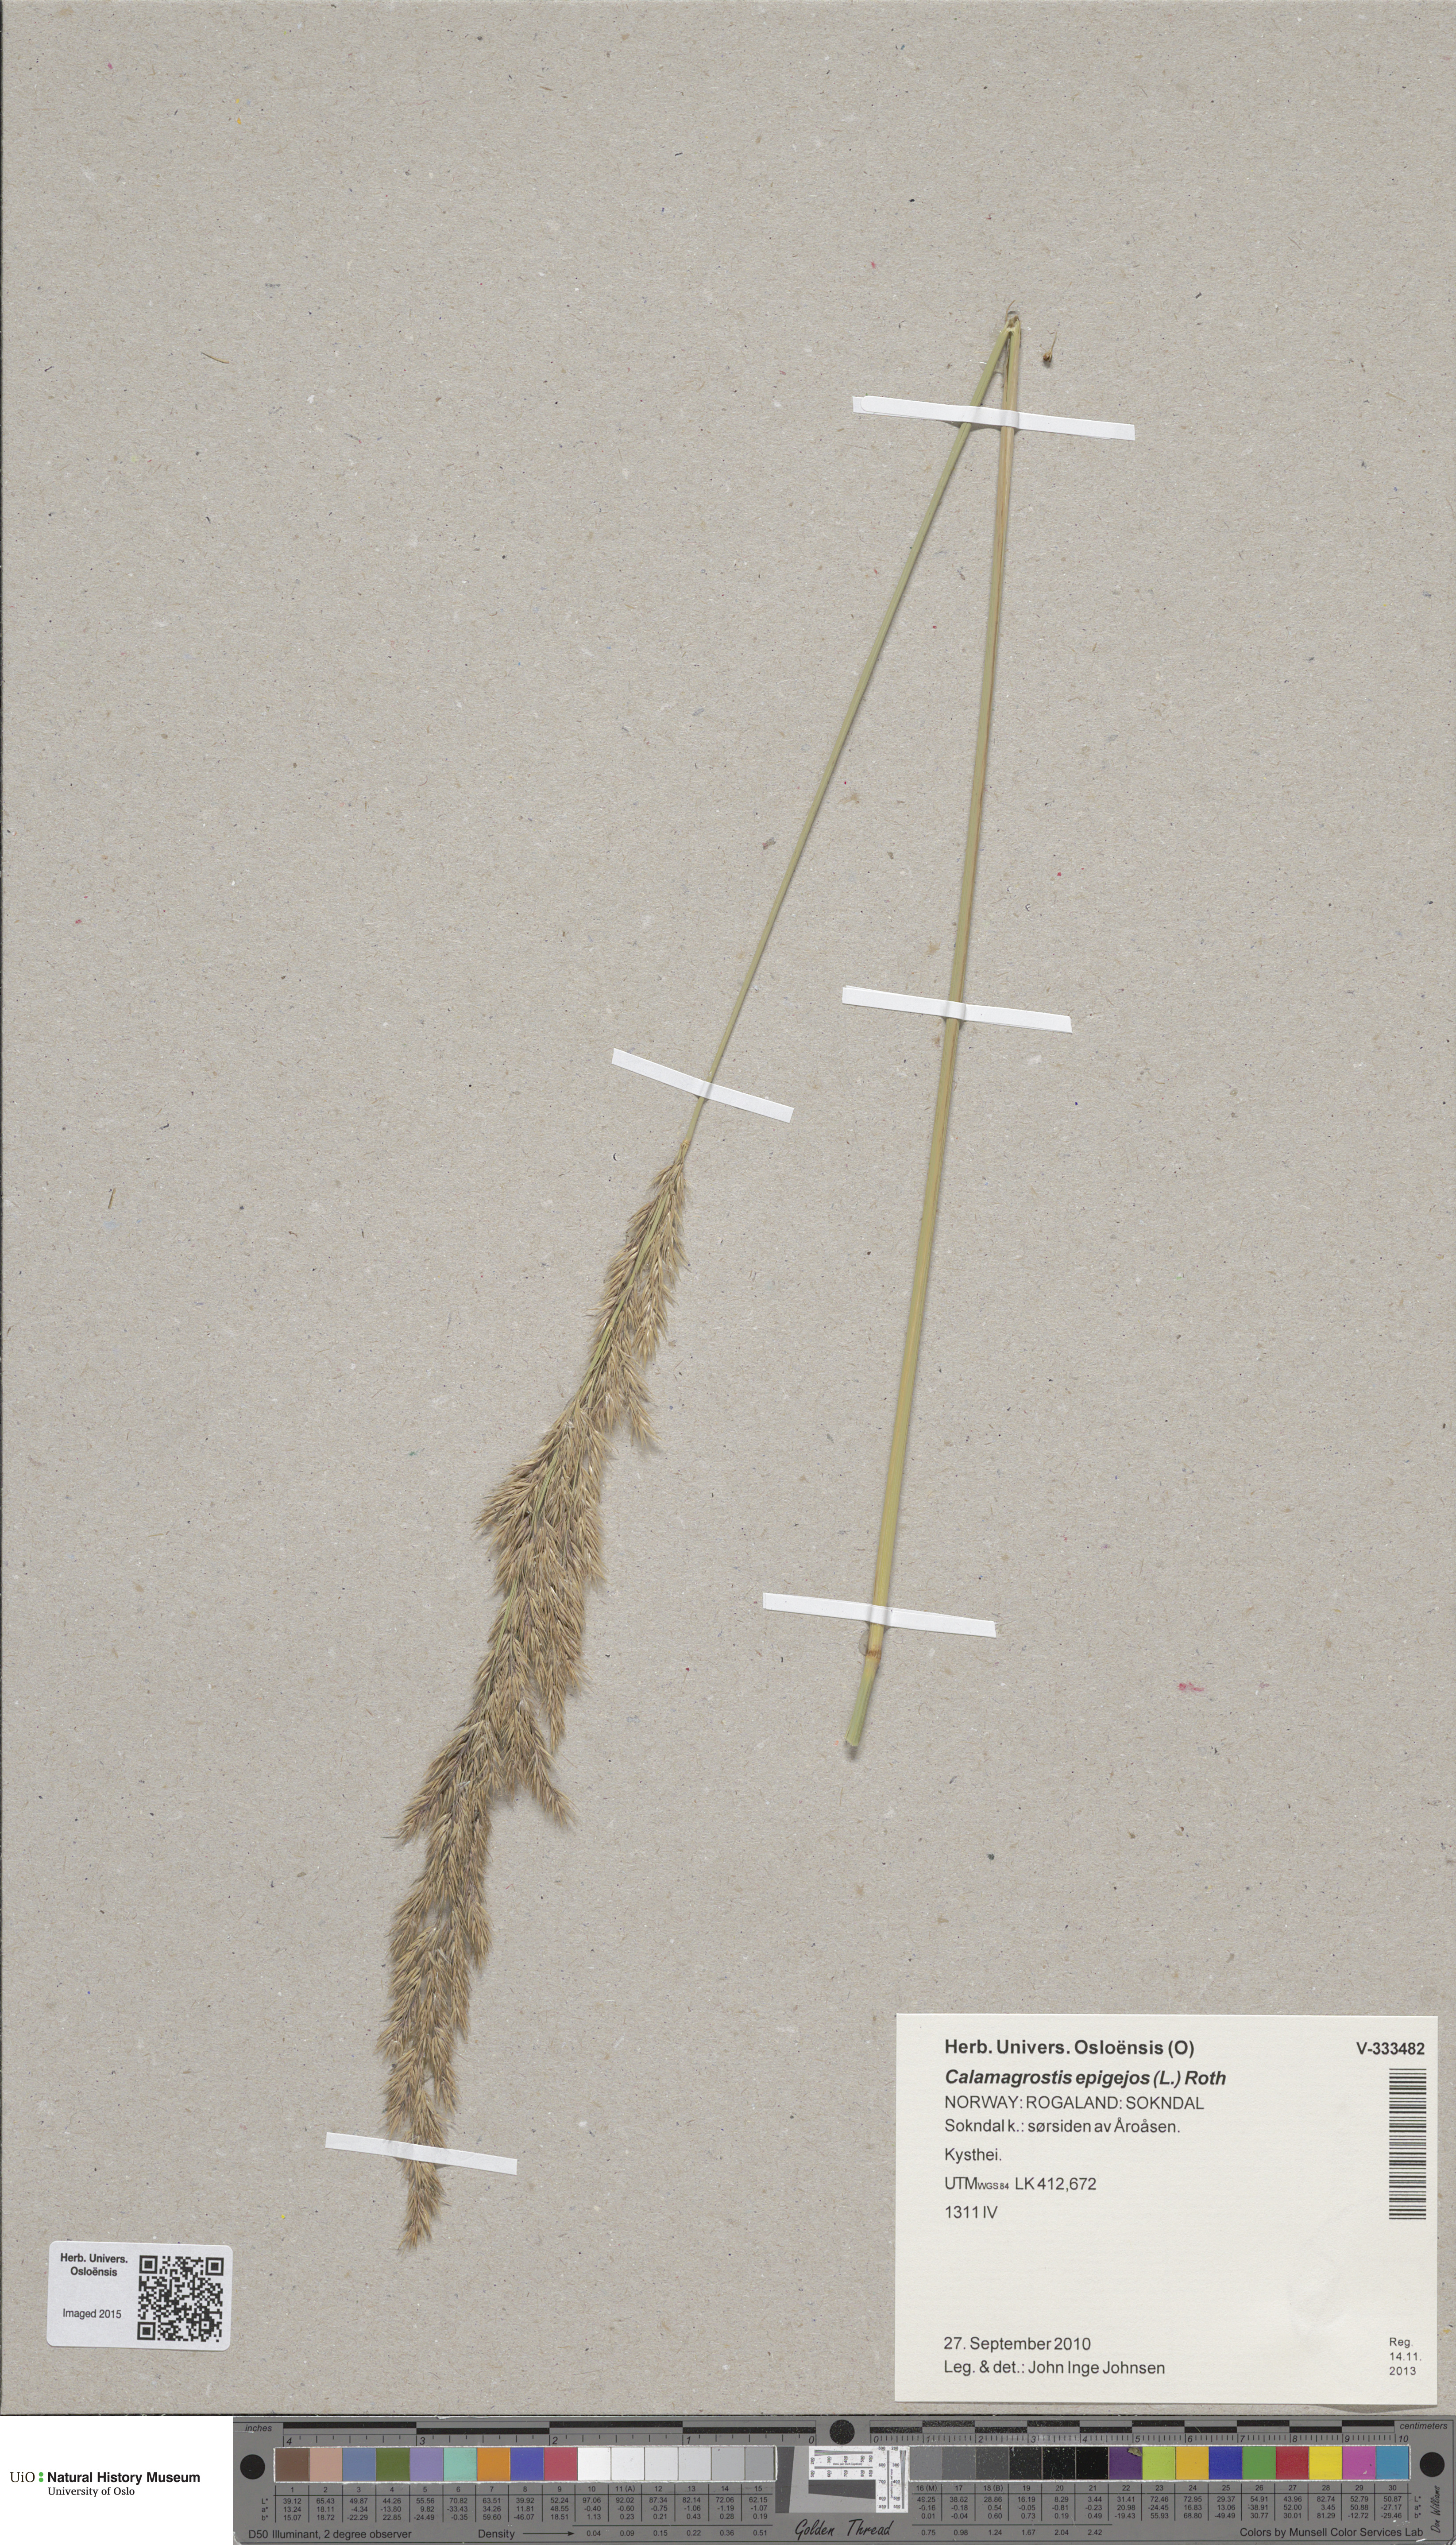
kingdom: Plantae
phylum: Tracheophyta
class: Liliopsida
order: Poales
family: Poaceae
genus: Calamagrostis
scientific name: Calamagrostis epigejos
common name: Wood small-reed
